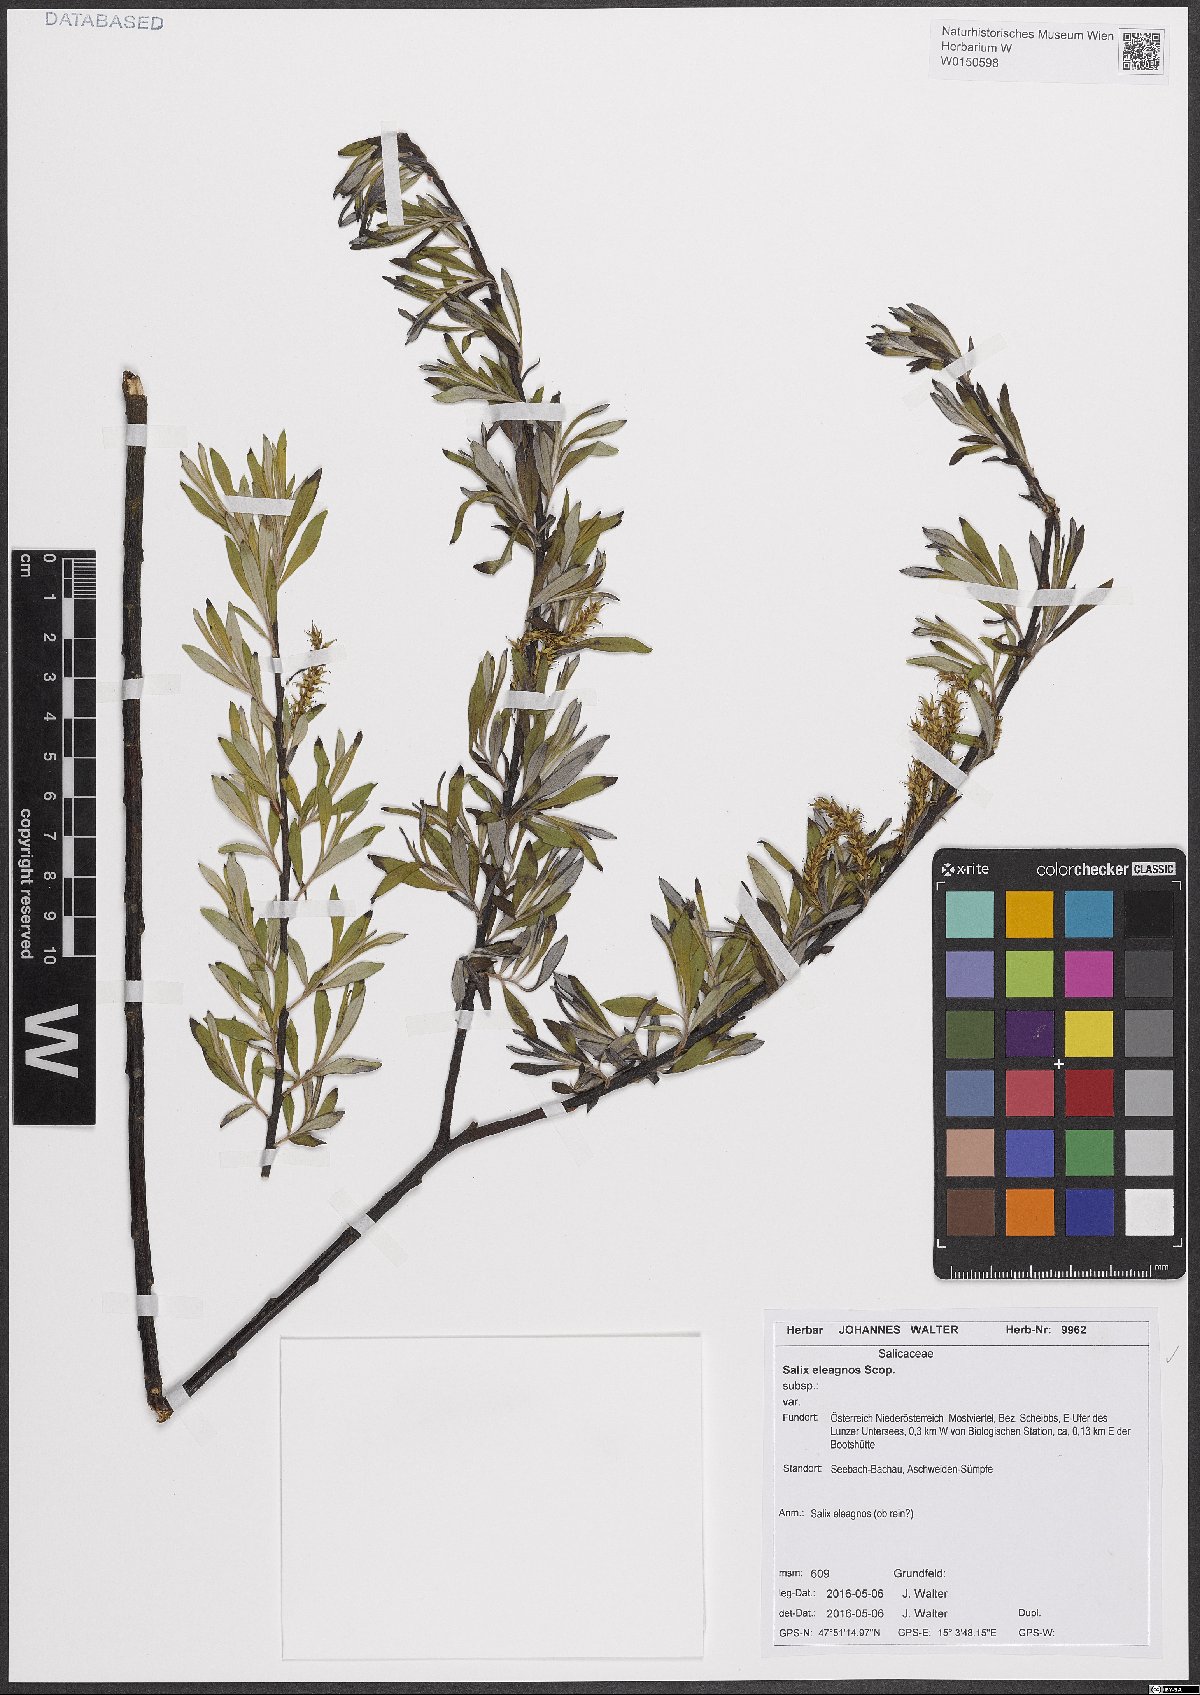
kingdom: Plantae
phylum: Tracheophyta
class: Magnoliopsida
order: Malpighiales
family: Salicaceae
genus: Salix
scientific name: Salix eleagnos
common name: Elaeagnus willow
